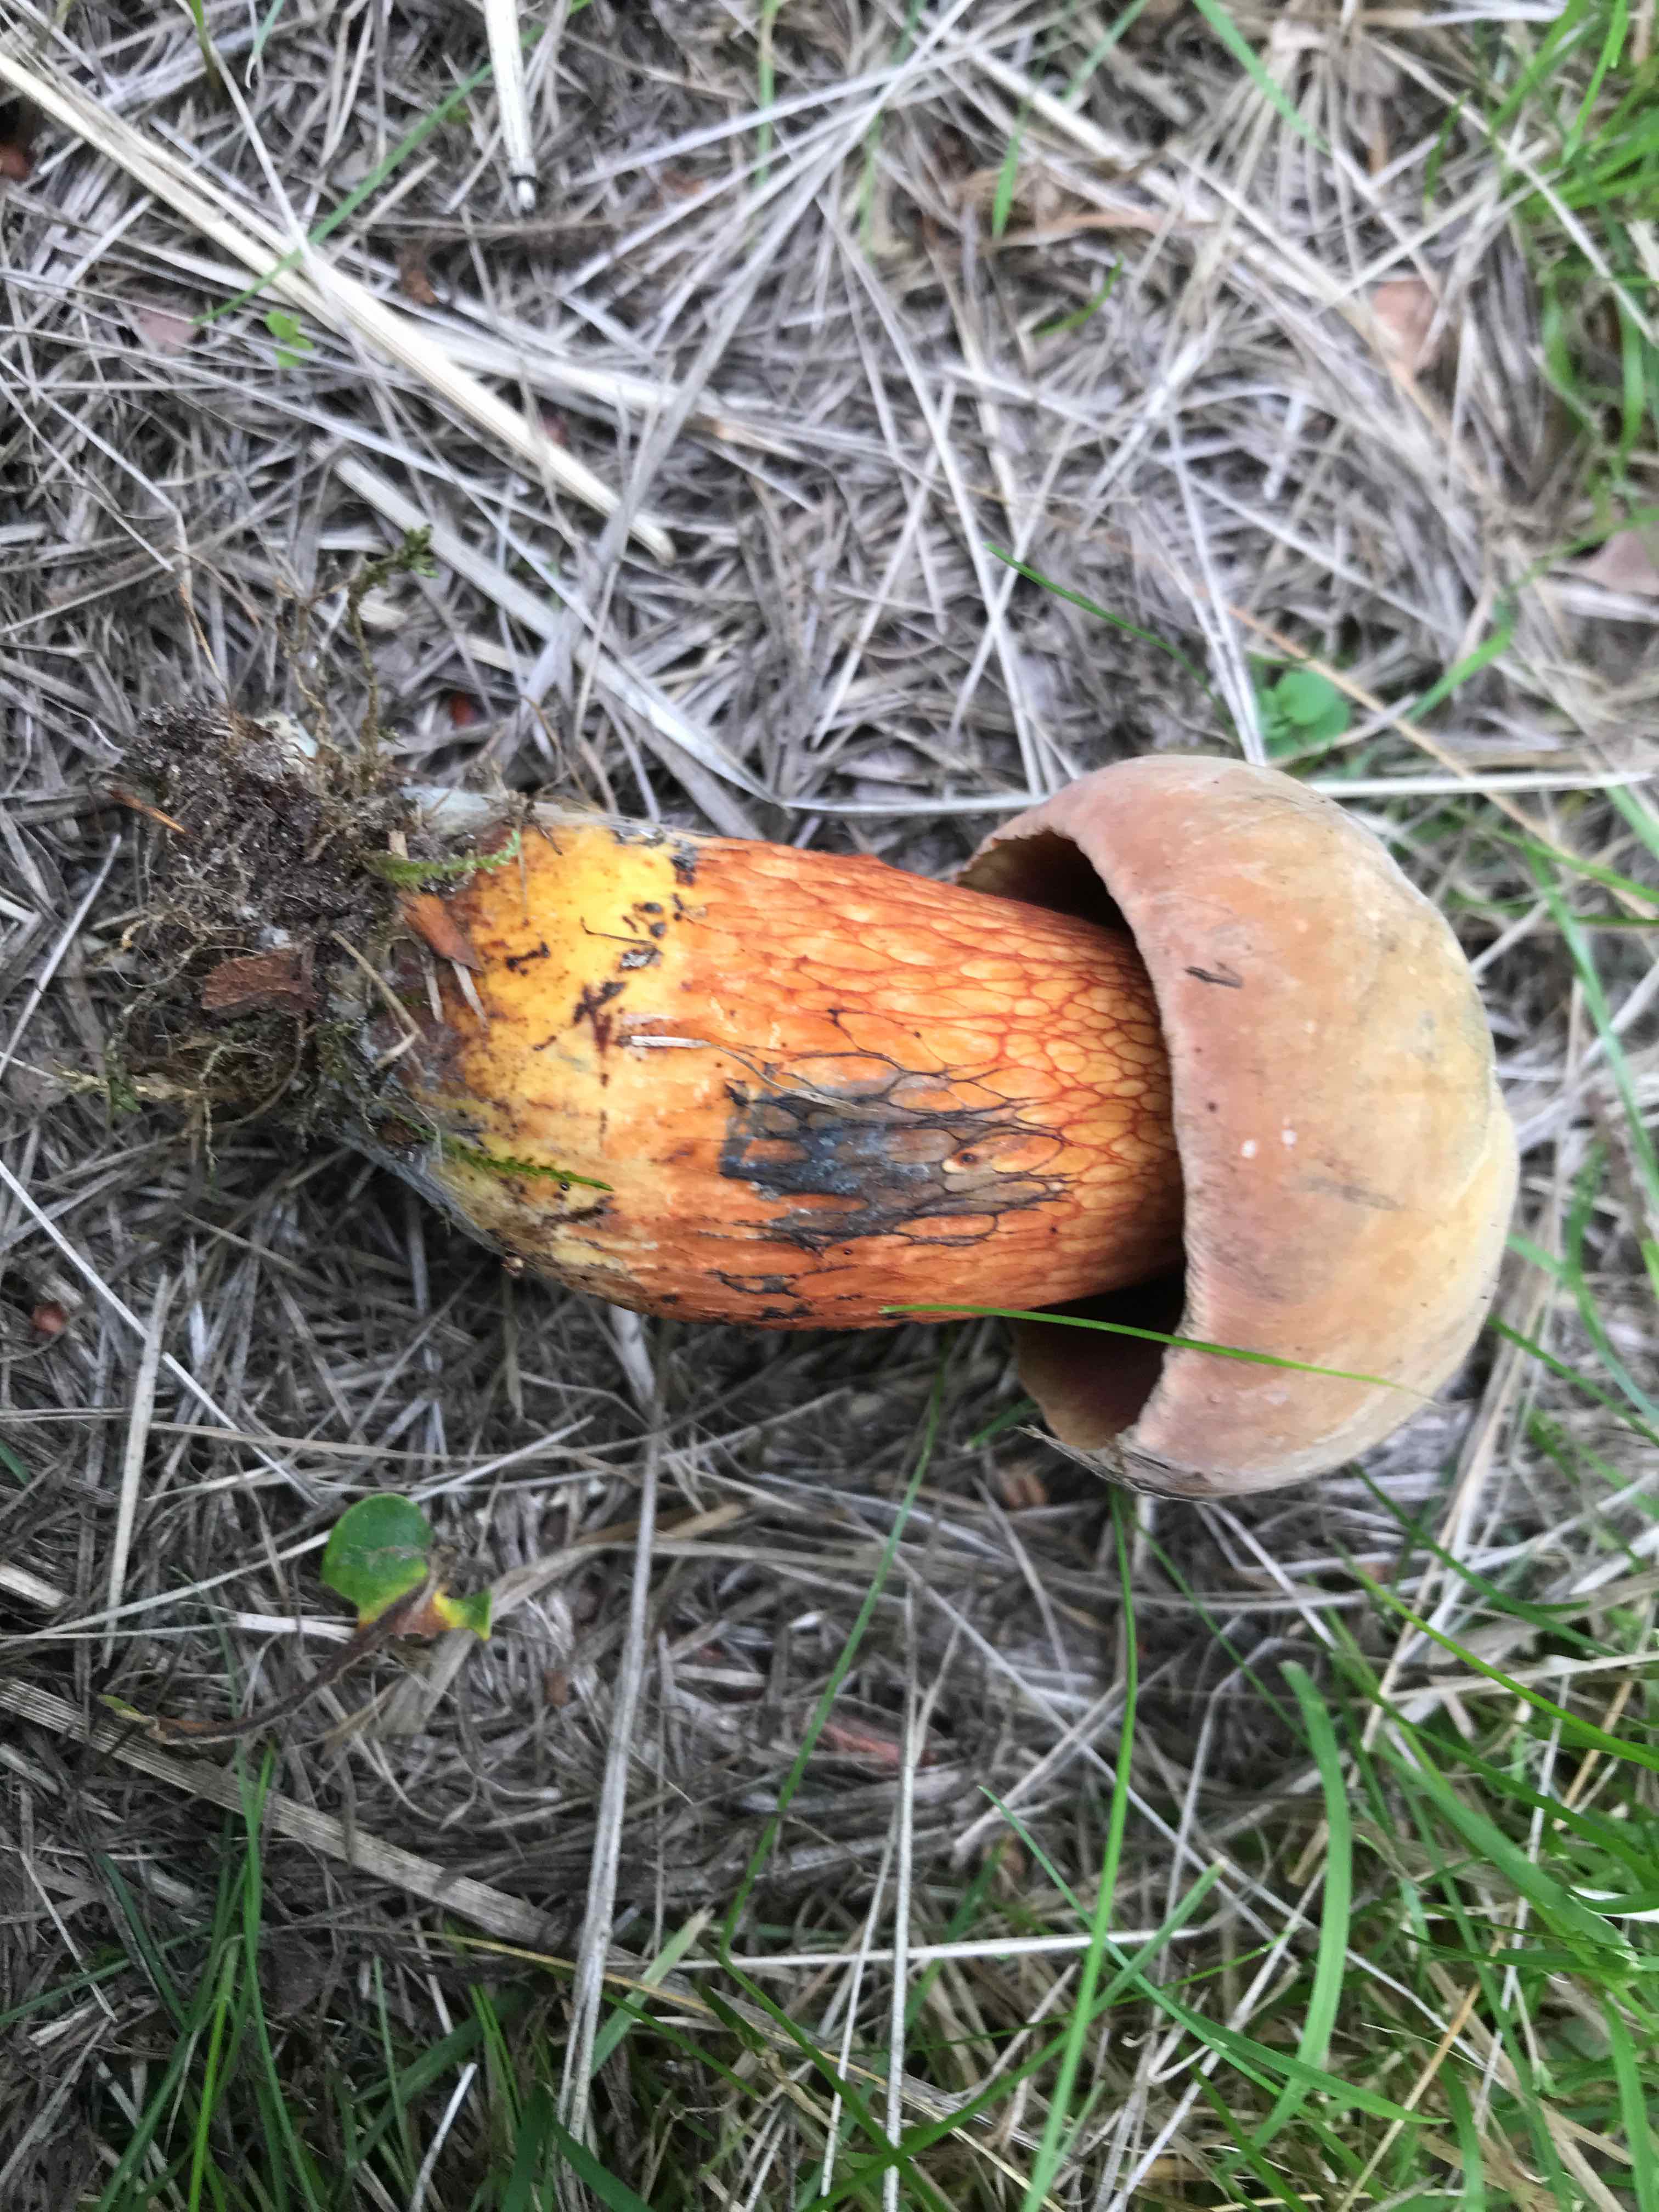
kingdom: Fungi
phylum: Basidiomycota
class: Agaricomycetes
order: Boletales
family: Boletaceae
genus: Suillellus
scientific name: Suillellus luridus
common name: netstokket indigorørhat
